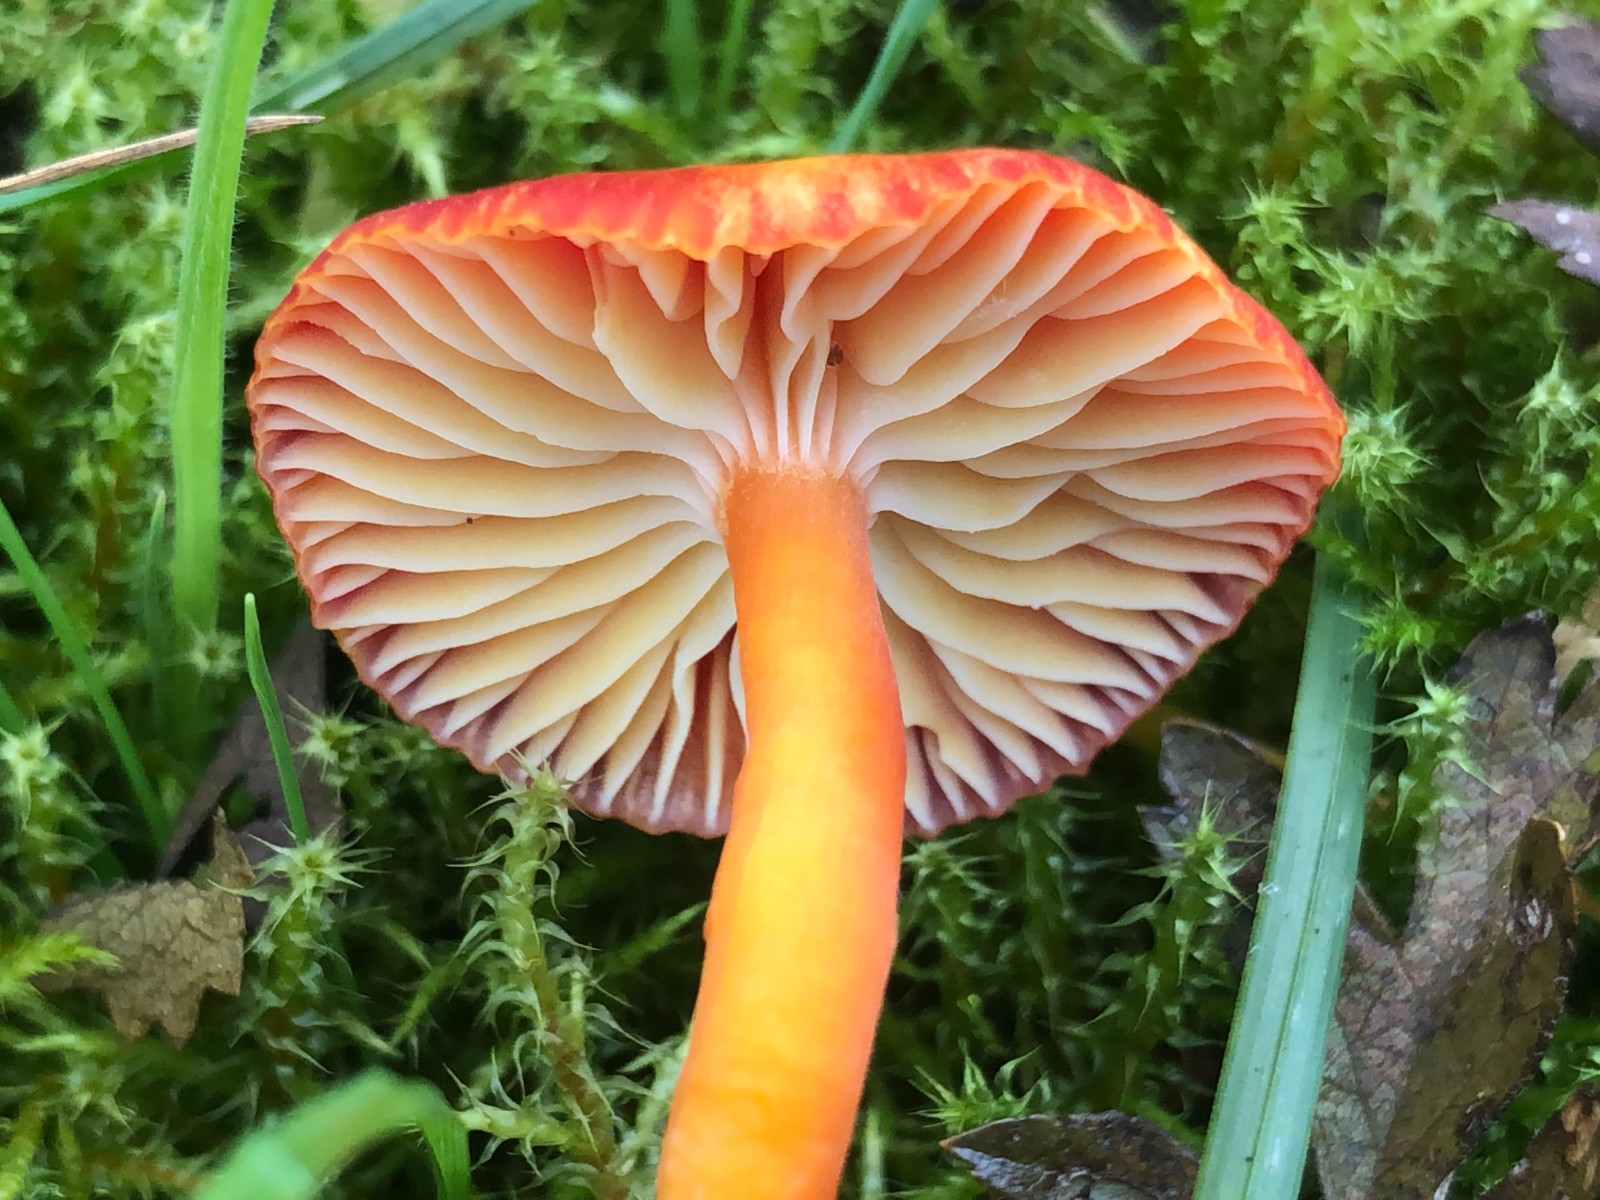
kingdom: Fungi
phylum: Basidiomycota
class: Agaricomycetes
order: Agaricales
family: Hygrophoraceae
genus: Hygrocybe
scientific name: Hygrocybe coccinea
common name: cinnober-vokshat
